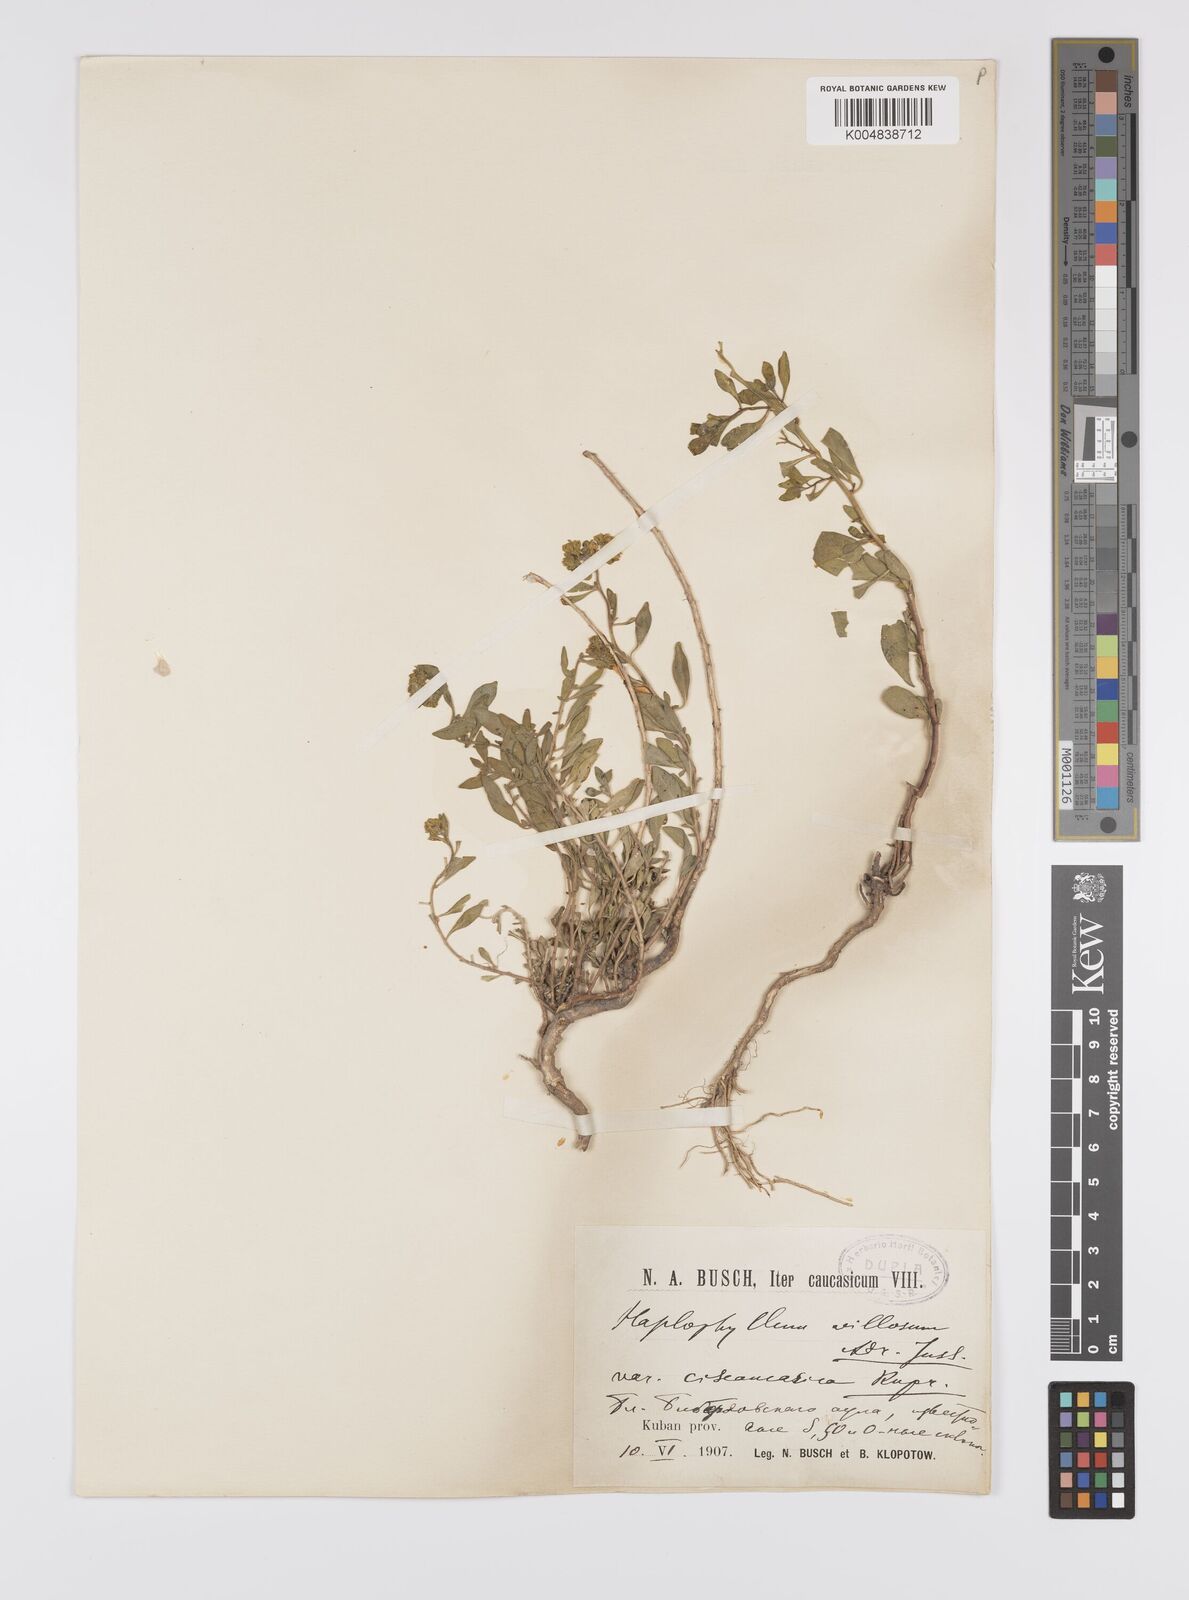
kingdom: Plantae
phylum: Tracheophyta
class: Magnoliopsida
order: Sapindales
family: Rutaceae
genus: Haplophyllum
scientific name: Haplophyllum ciscaucasicum
